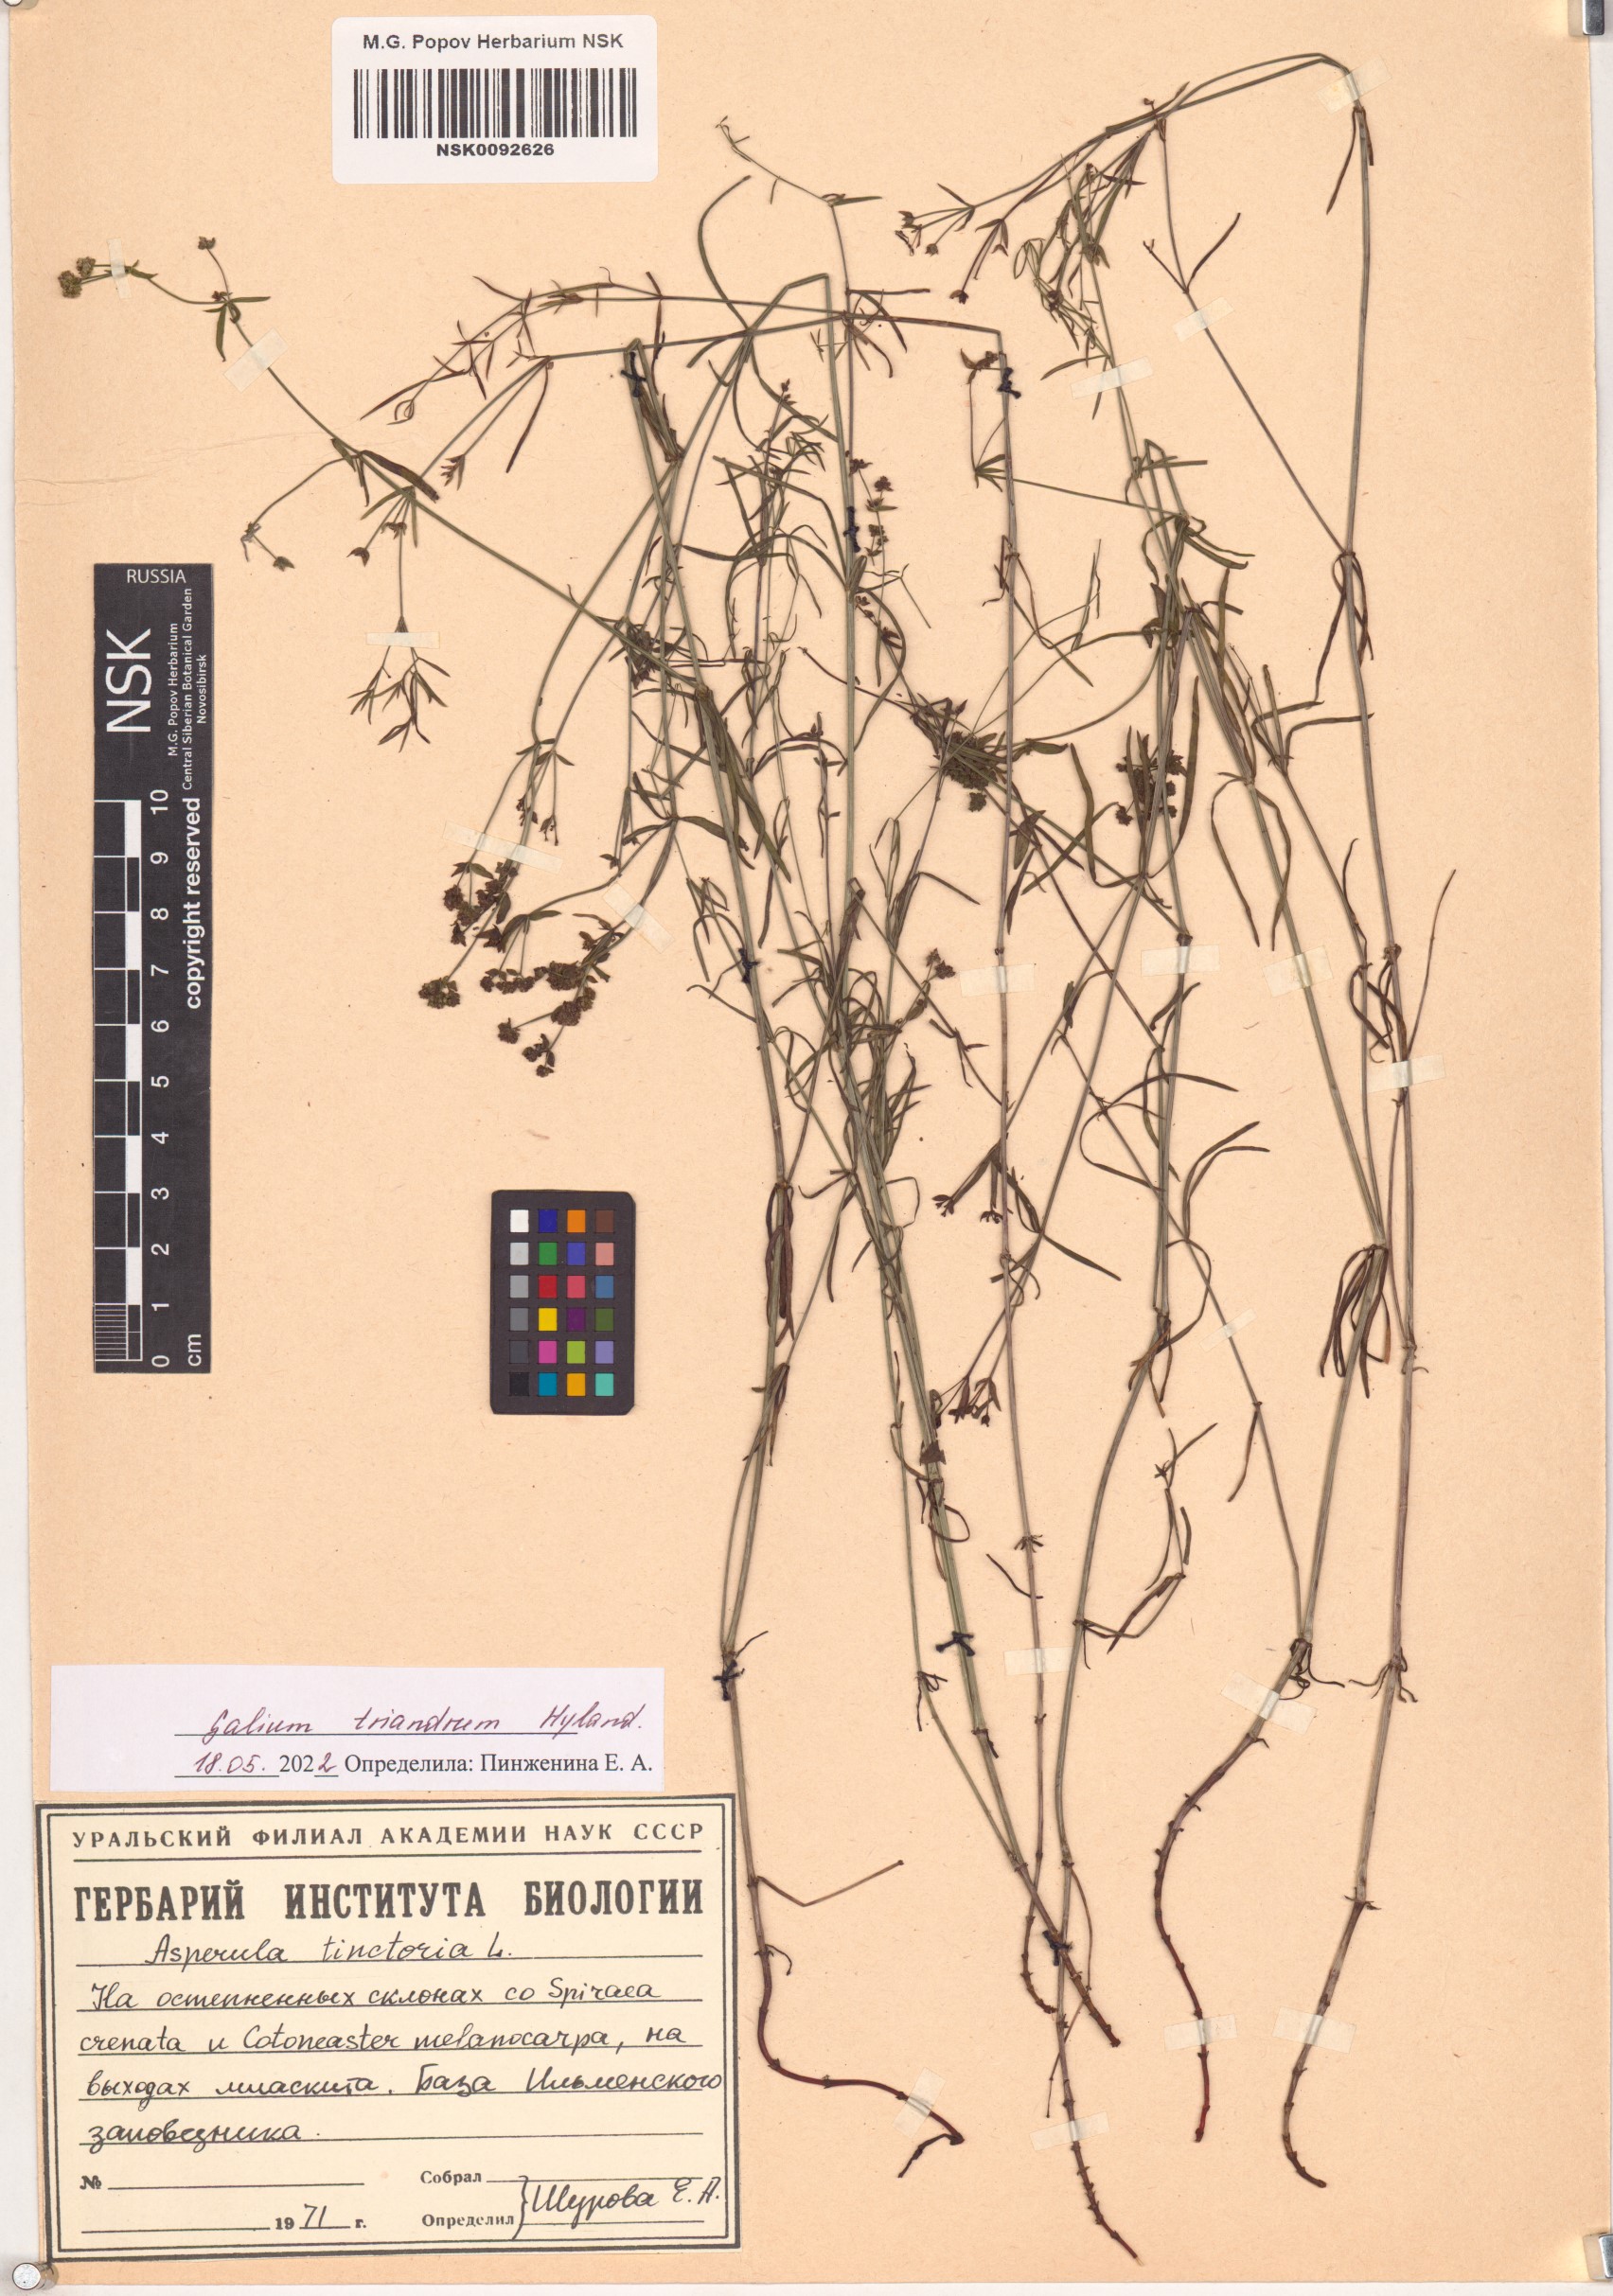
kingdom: Plantae
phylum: Tracheophyta
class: Magnoliopsida
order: Gentianales
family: Rubiaceae
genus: Asperula
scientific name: Asperula tinctoria
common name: Dyer's woodruff
